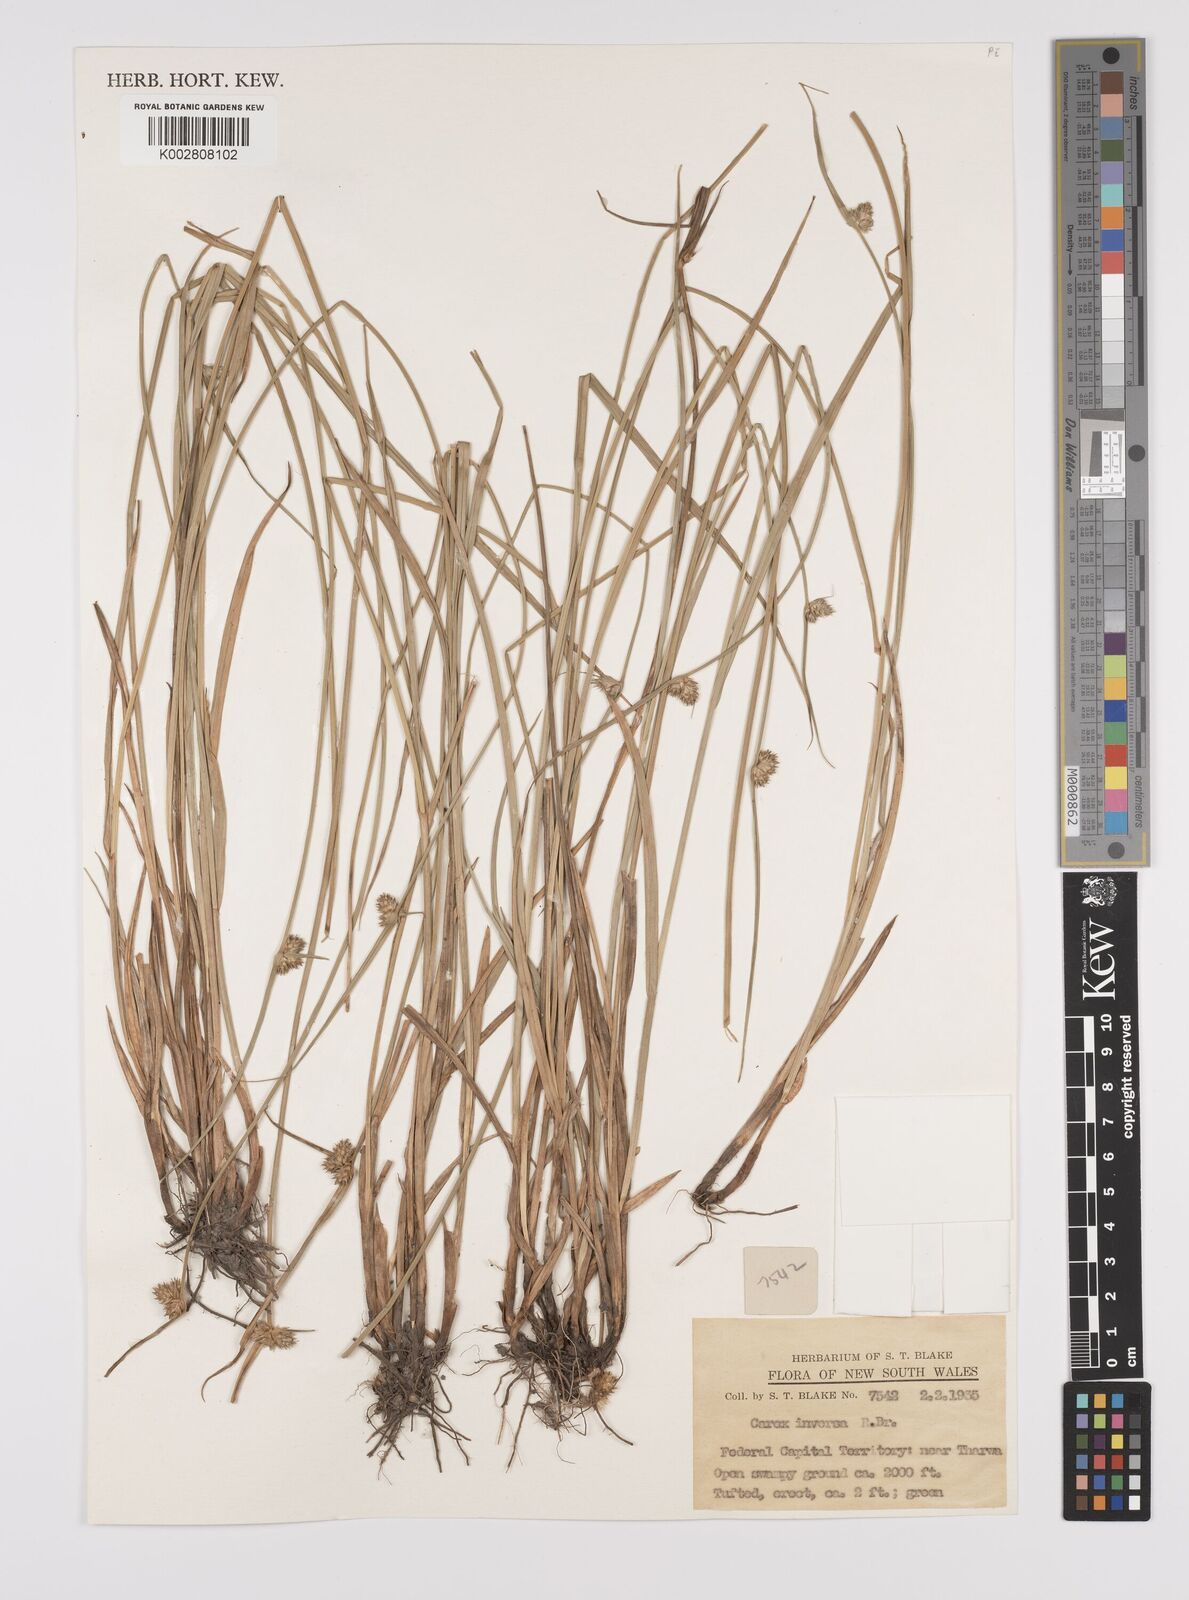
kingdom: Plantae
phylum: Tracheophyta
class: Liliopsida
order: Poales
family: Cyperaceae
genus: Carex
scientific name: Carex inversa
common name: Knob sedge
